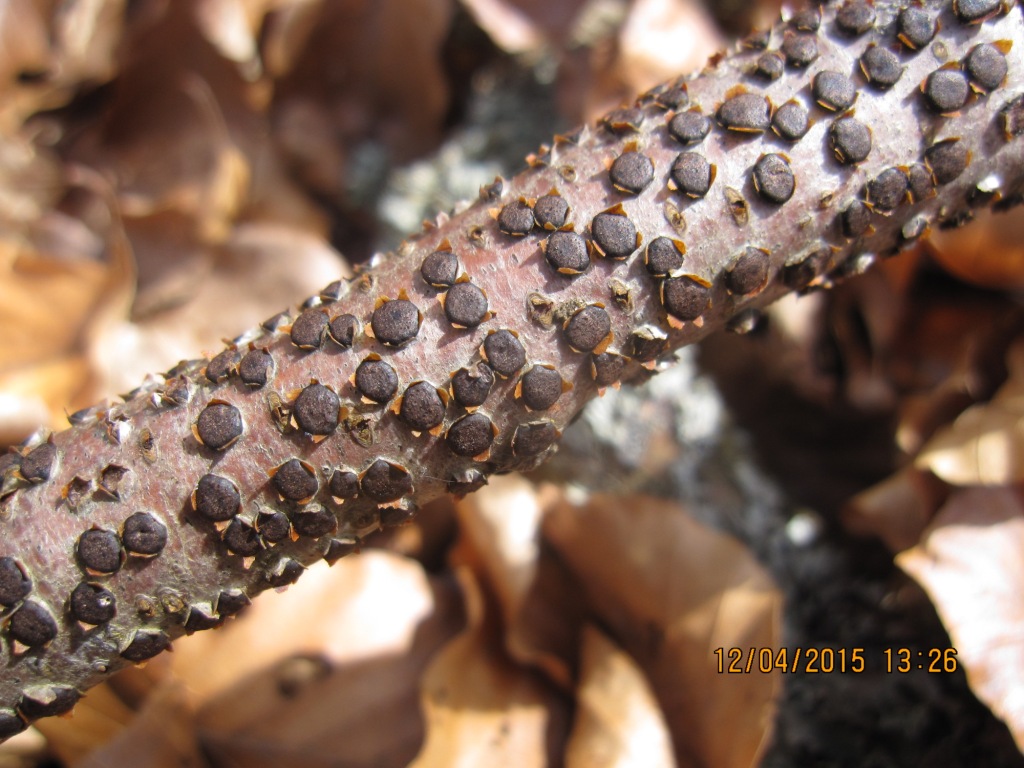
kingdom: Fungi
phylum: Ascomycota
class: Sordariomycetes
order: Xylariales
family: Diatrypaceae
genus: Diatrype
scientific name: Diatrype disciformis
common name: kant-kulskorpe
